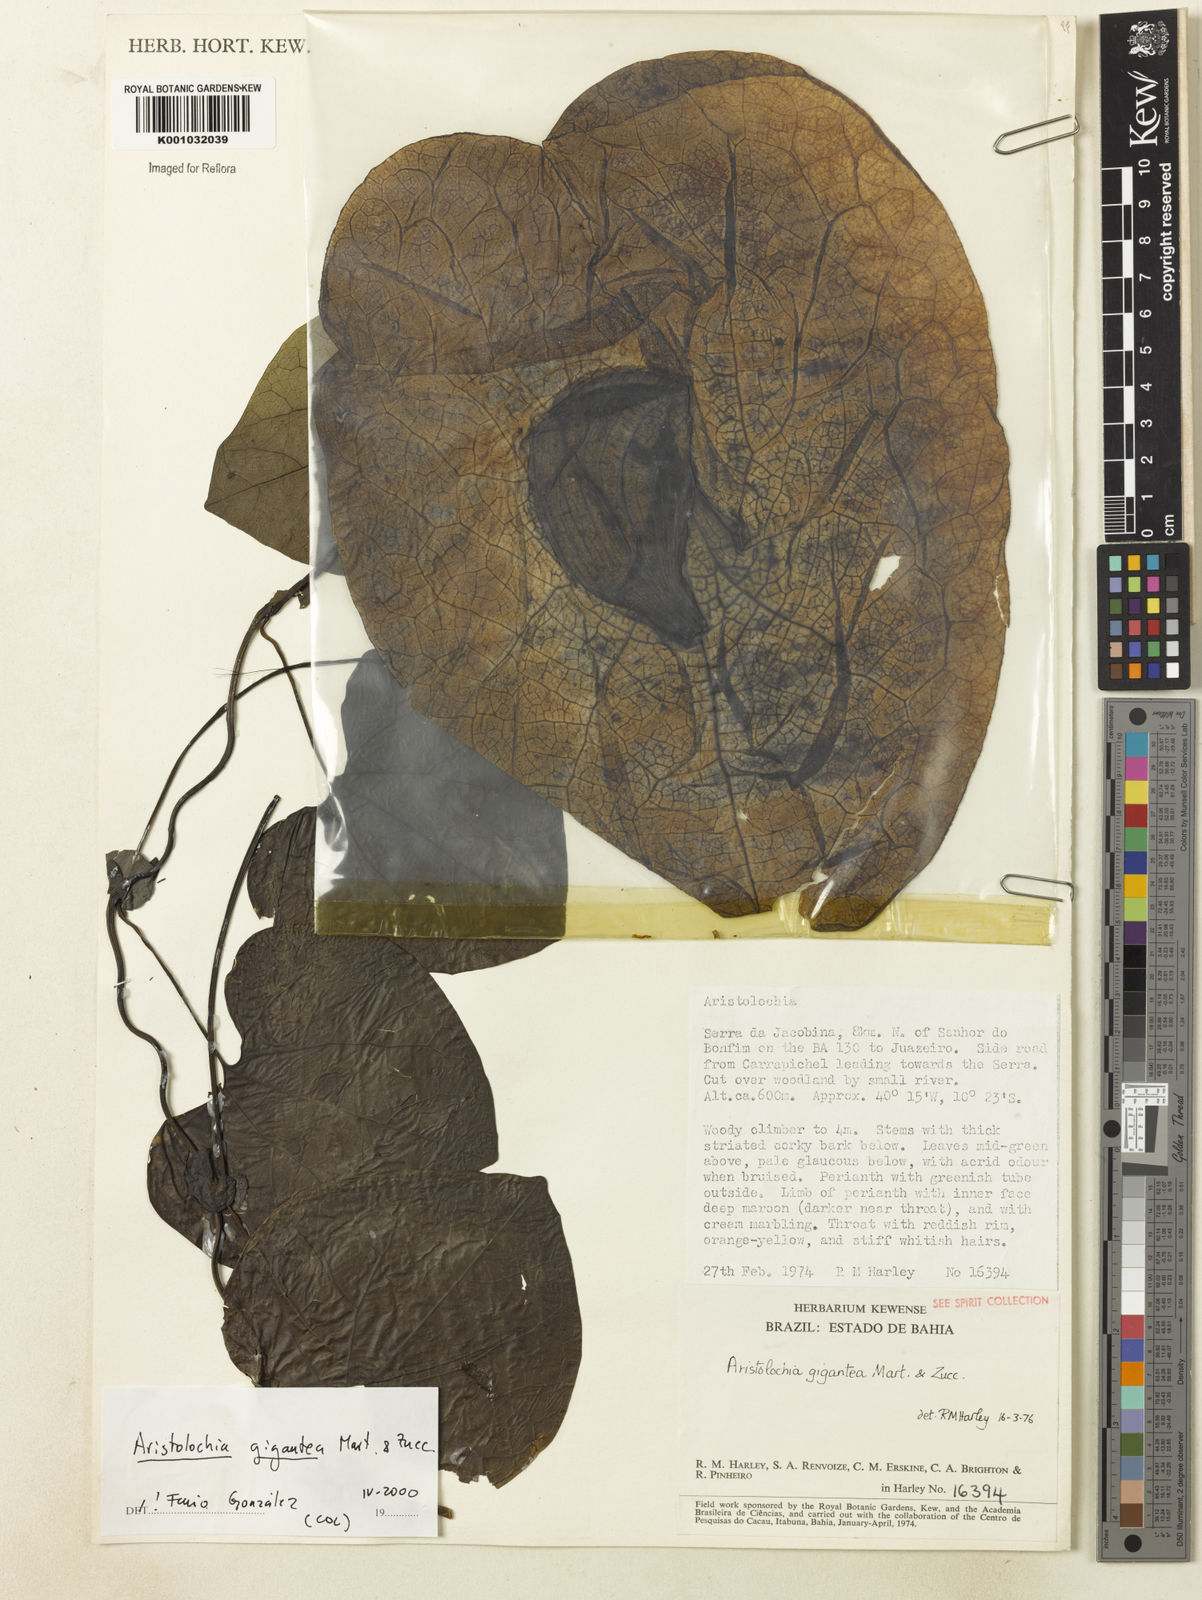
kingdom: Plantae
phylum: Tracheophyta
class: Magnoliopsida
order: Piperales
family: Aristolochiaceae
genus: Aristolochia
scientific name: Aristolochia gigantea
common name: Duckflower
